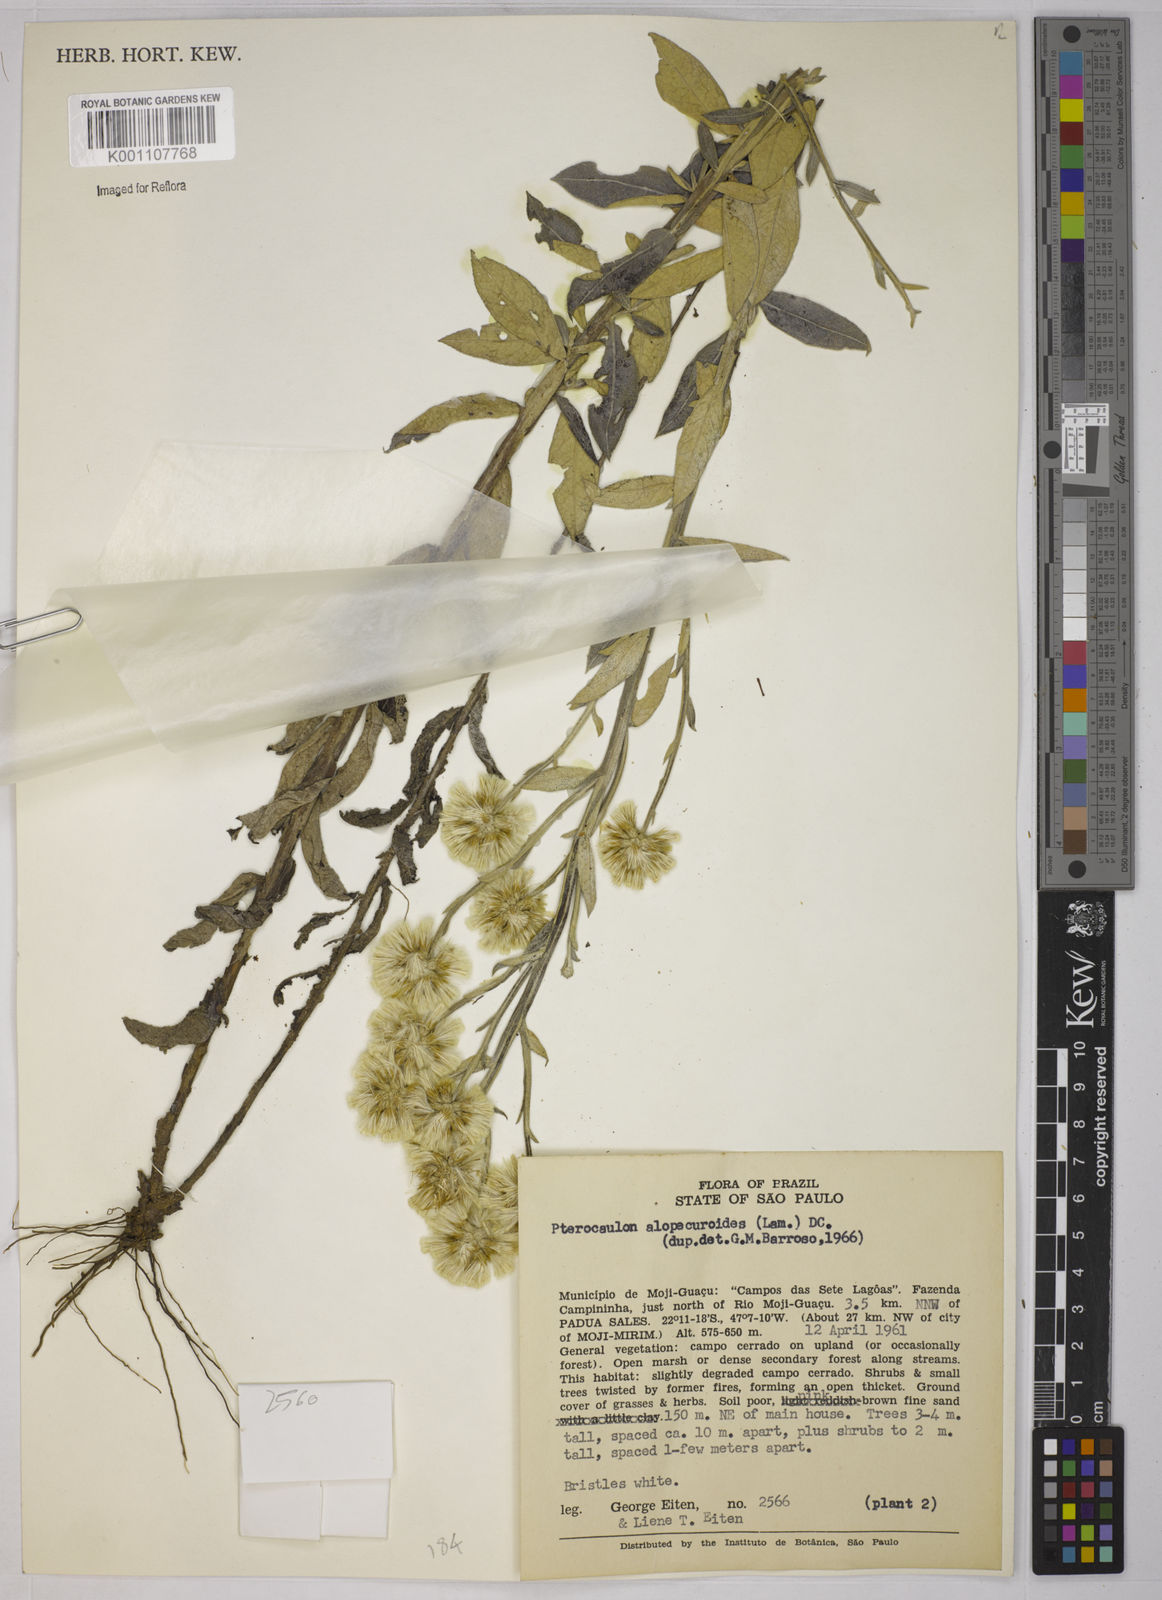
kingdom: Plantae
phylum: Tracheophyta
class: Magnoliopsida
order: Asterales
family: Asteraceae
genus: Pterocaulon
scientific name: Pterocaulon alopecuroides
